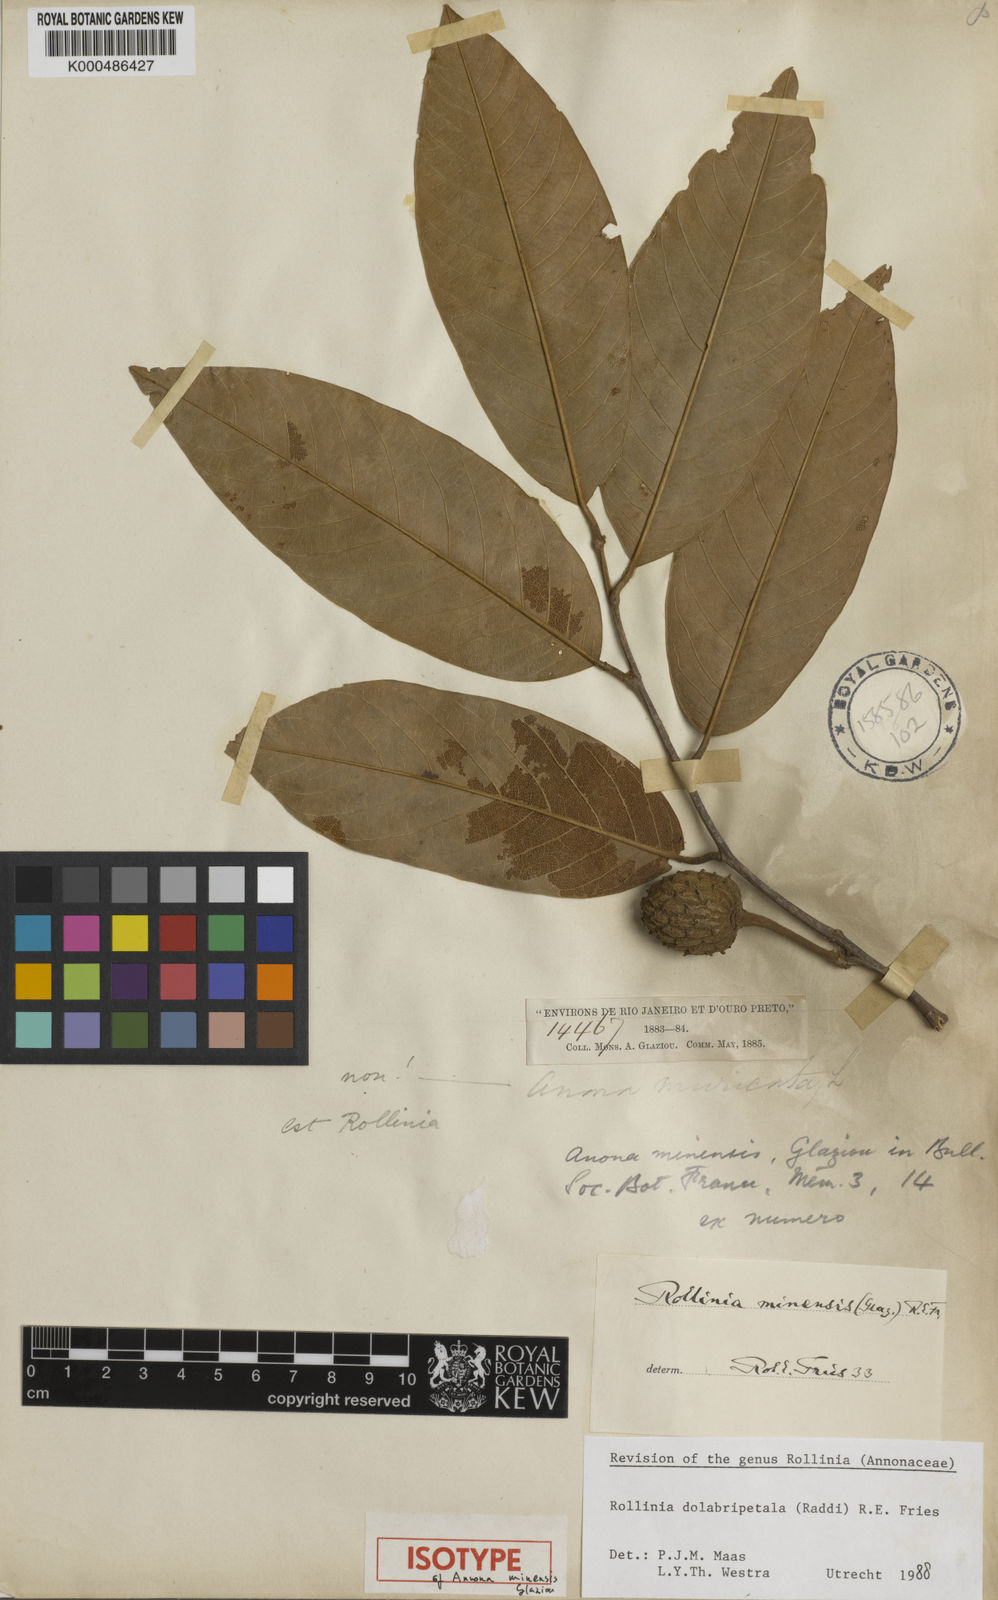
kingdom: Plantae
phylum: Tracheophyta
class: Magnoliopsida
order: Magnoliales
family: Annonaceae
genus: Annona
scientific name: Annona dolabripetala
